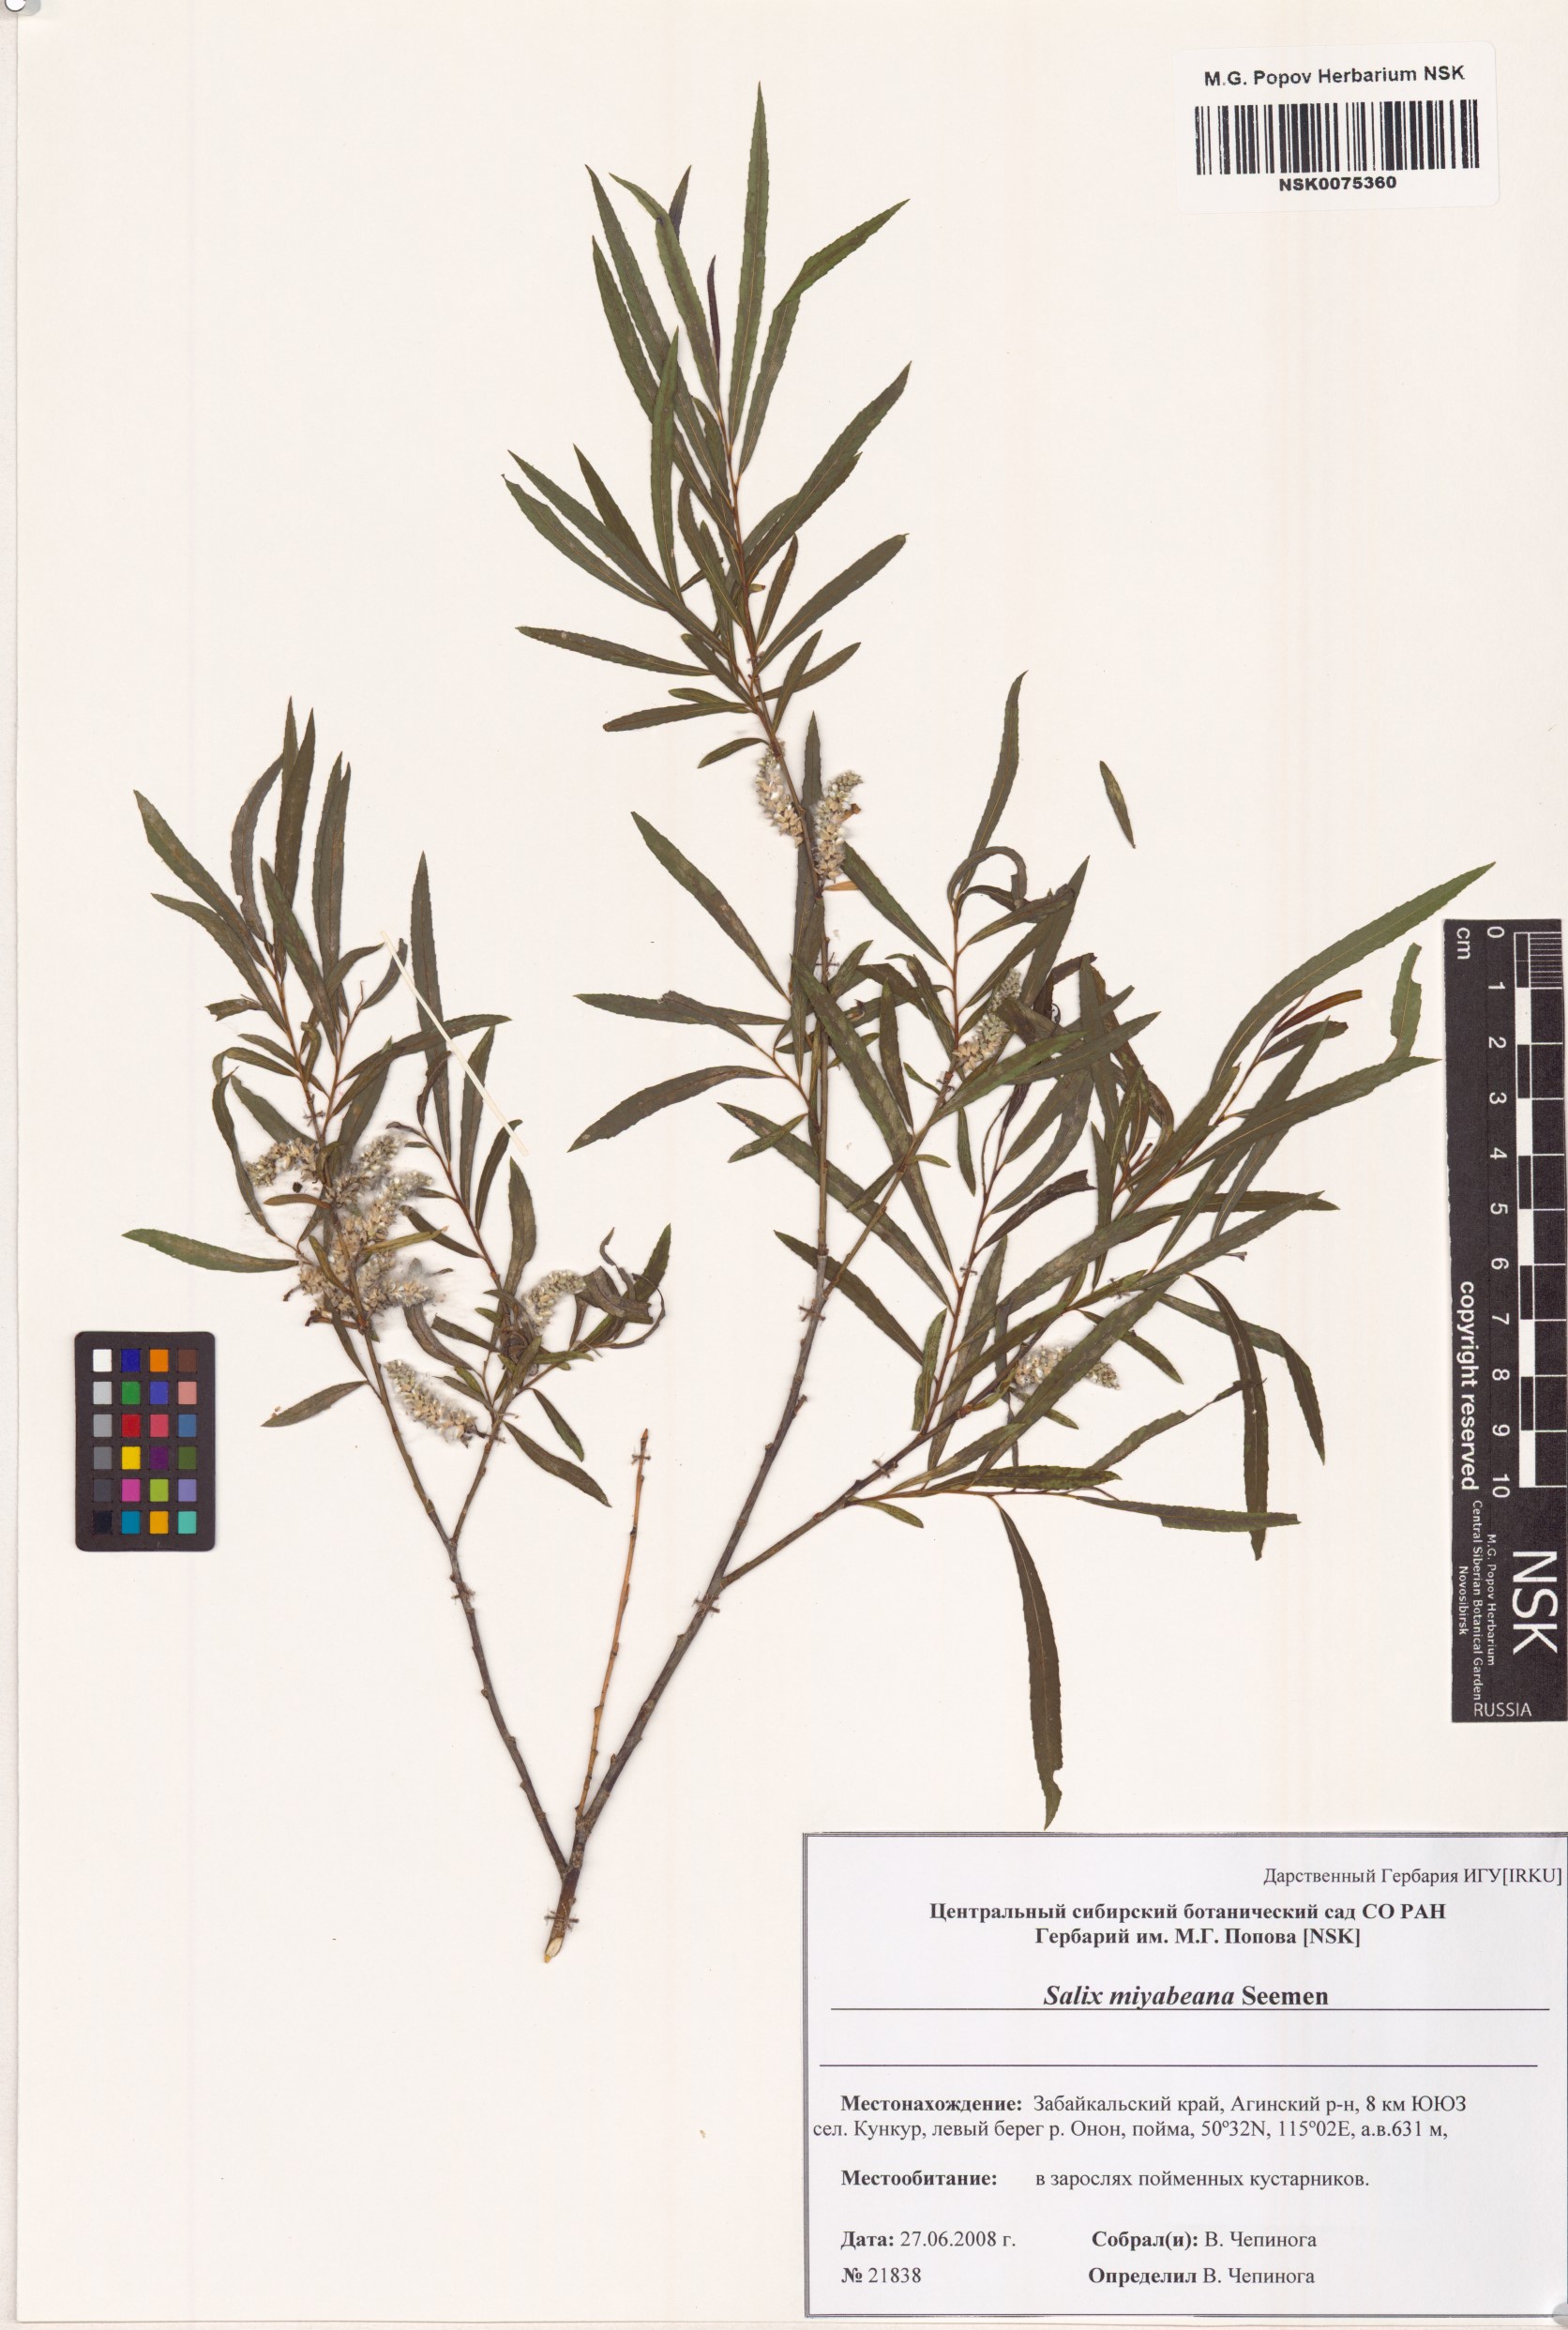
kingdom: Plantae
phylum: Tracheophyta
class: Magnoliopsida
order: Malpighiales
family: Salicaceae
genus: Salix
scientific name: Salix miyabeana
